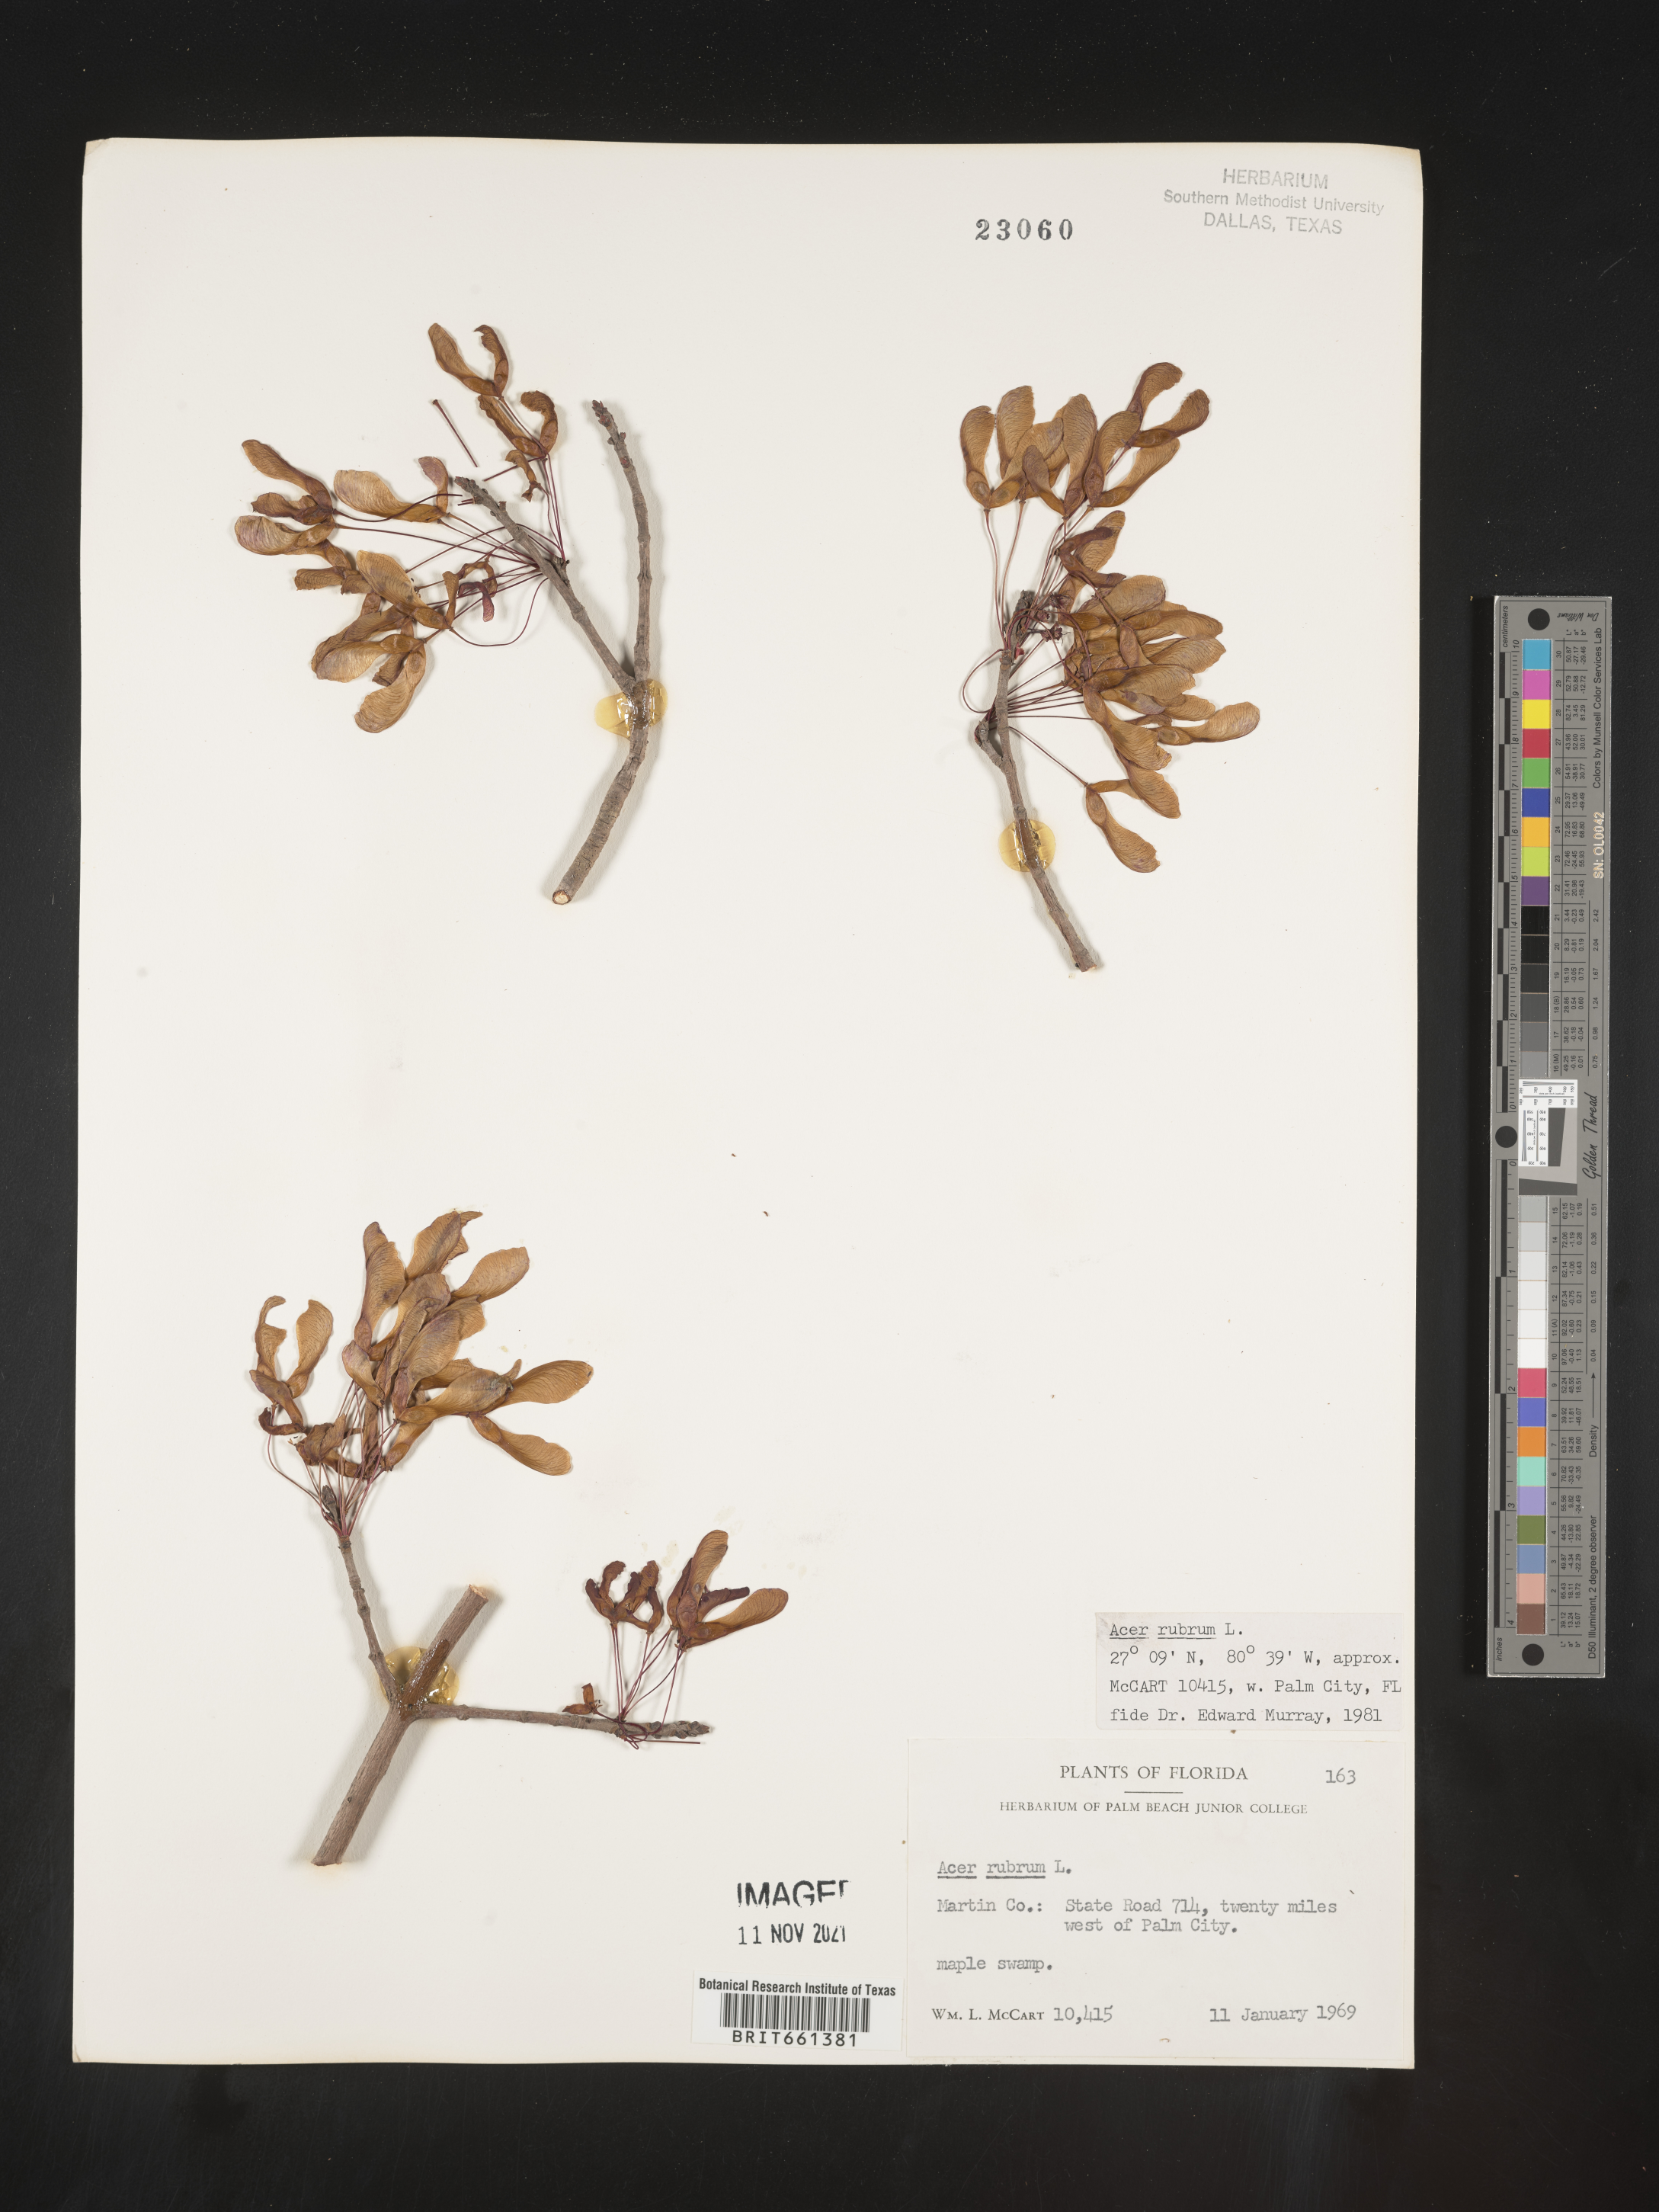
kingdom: Plantae
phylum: Tracheophyta
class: Magnoliopsida
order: Sapindales
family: Sapindaceae
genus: Acer
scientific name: Acer rubrum
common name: Red maple
